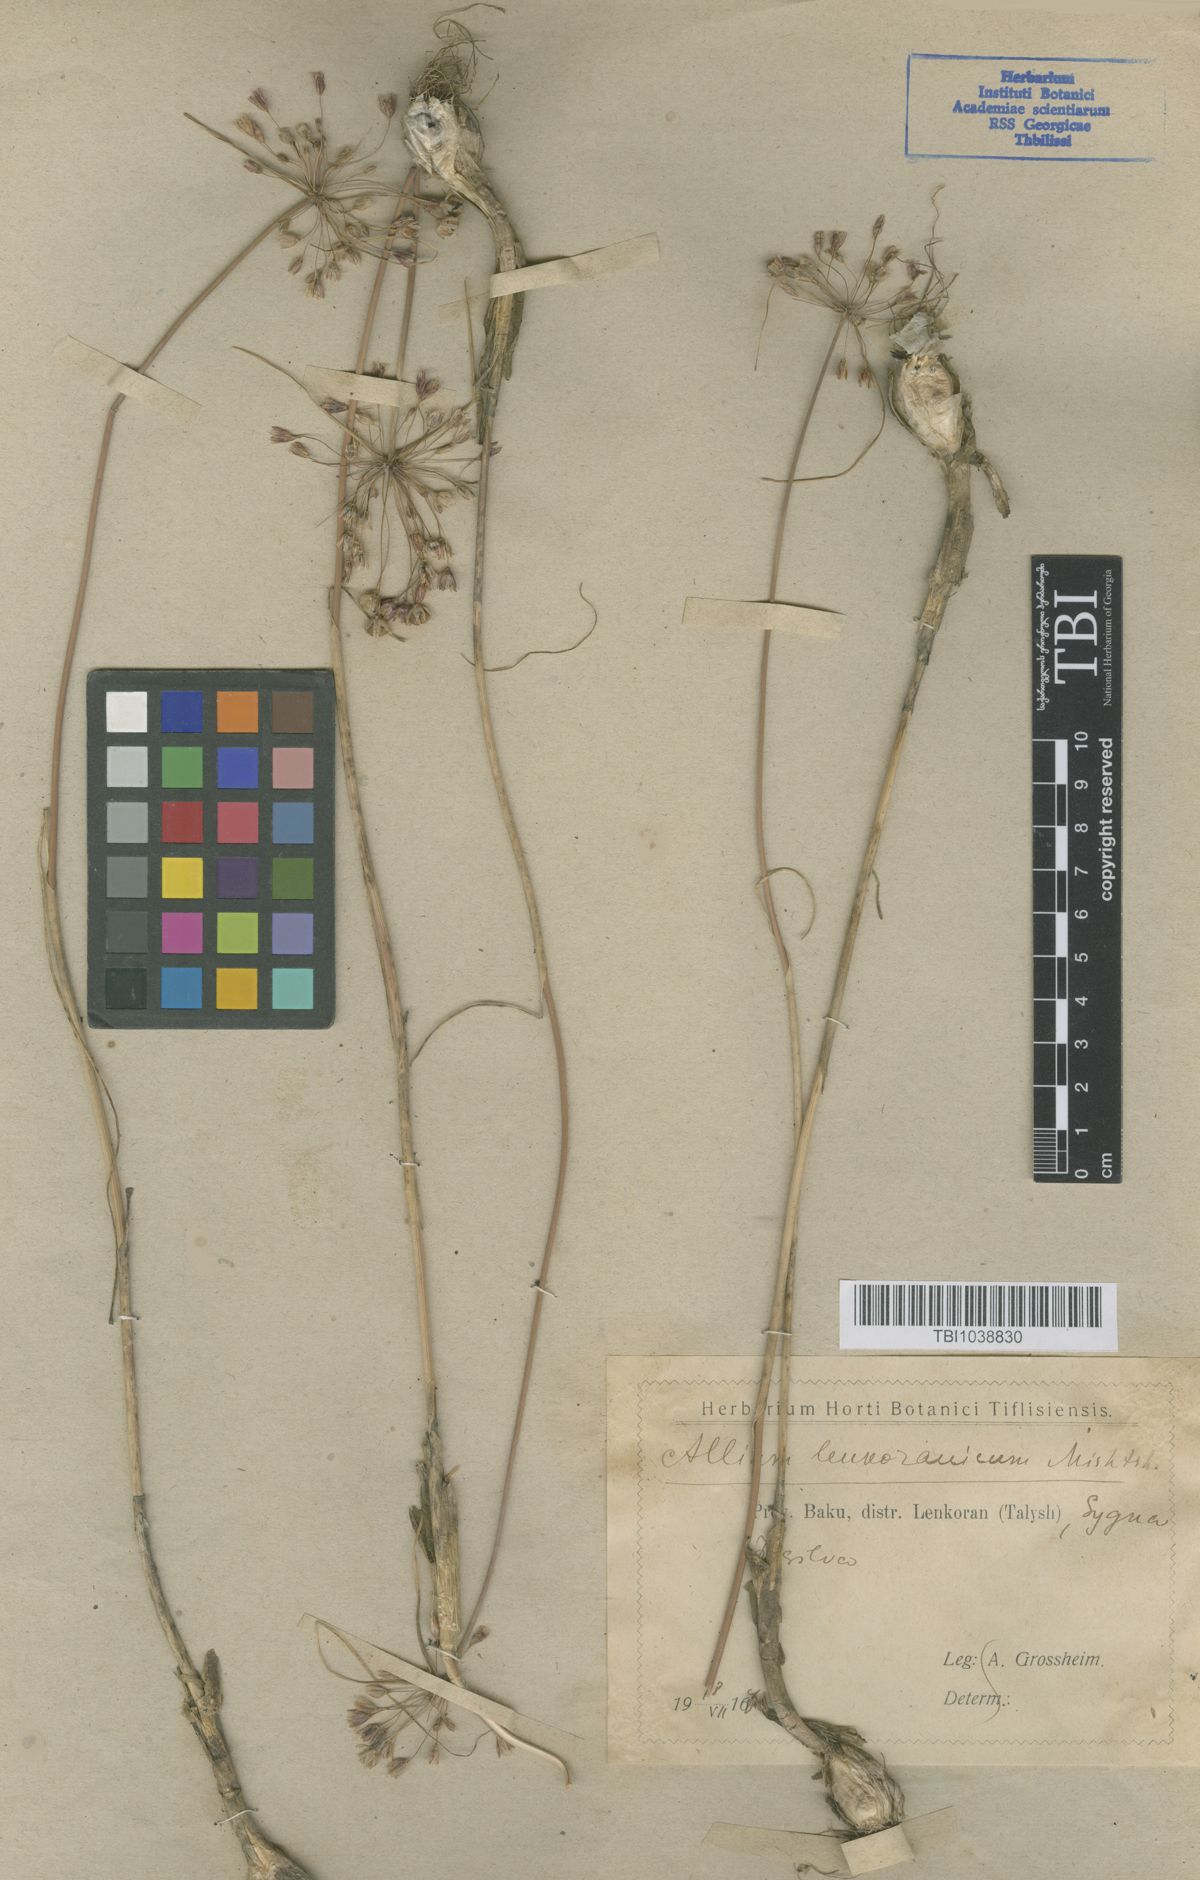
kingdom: Plantae
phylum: Tracheophyta
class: Liliopsida
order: Asparagales
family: Amaryllidaceae
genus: Allium
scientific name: Allium lenkoranicum
